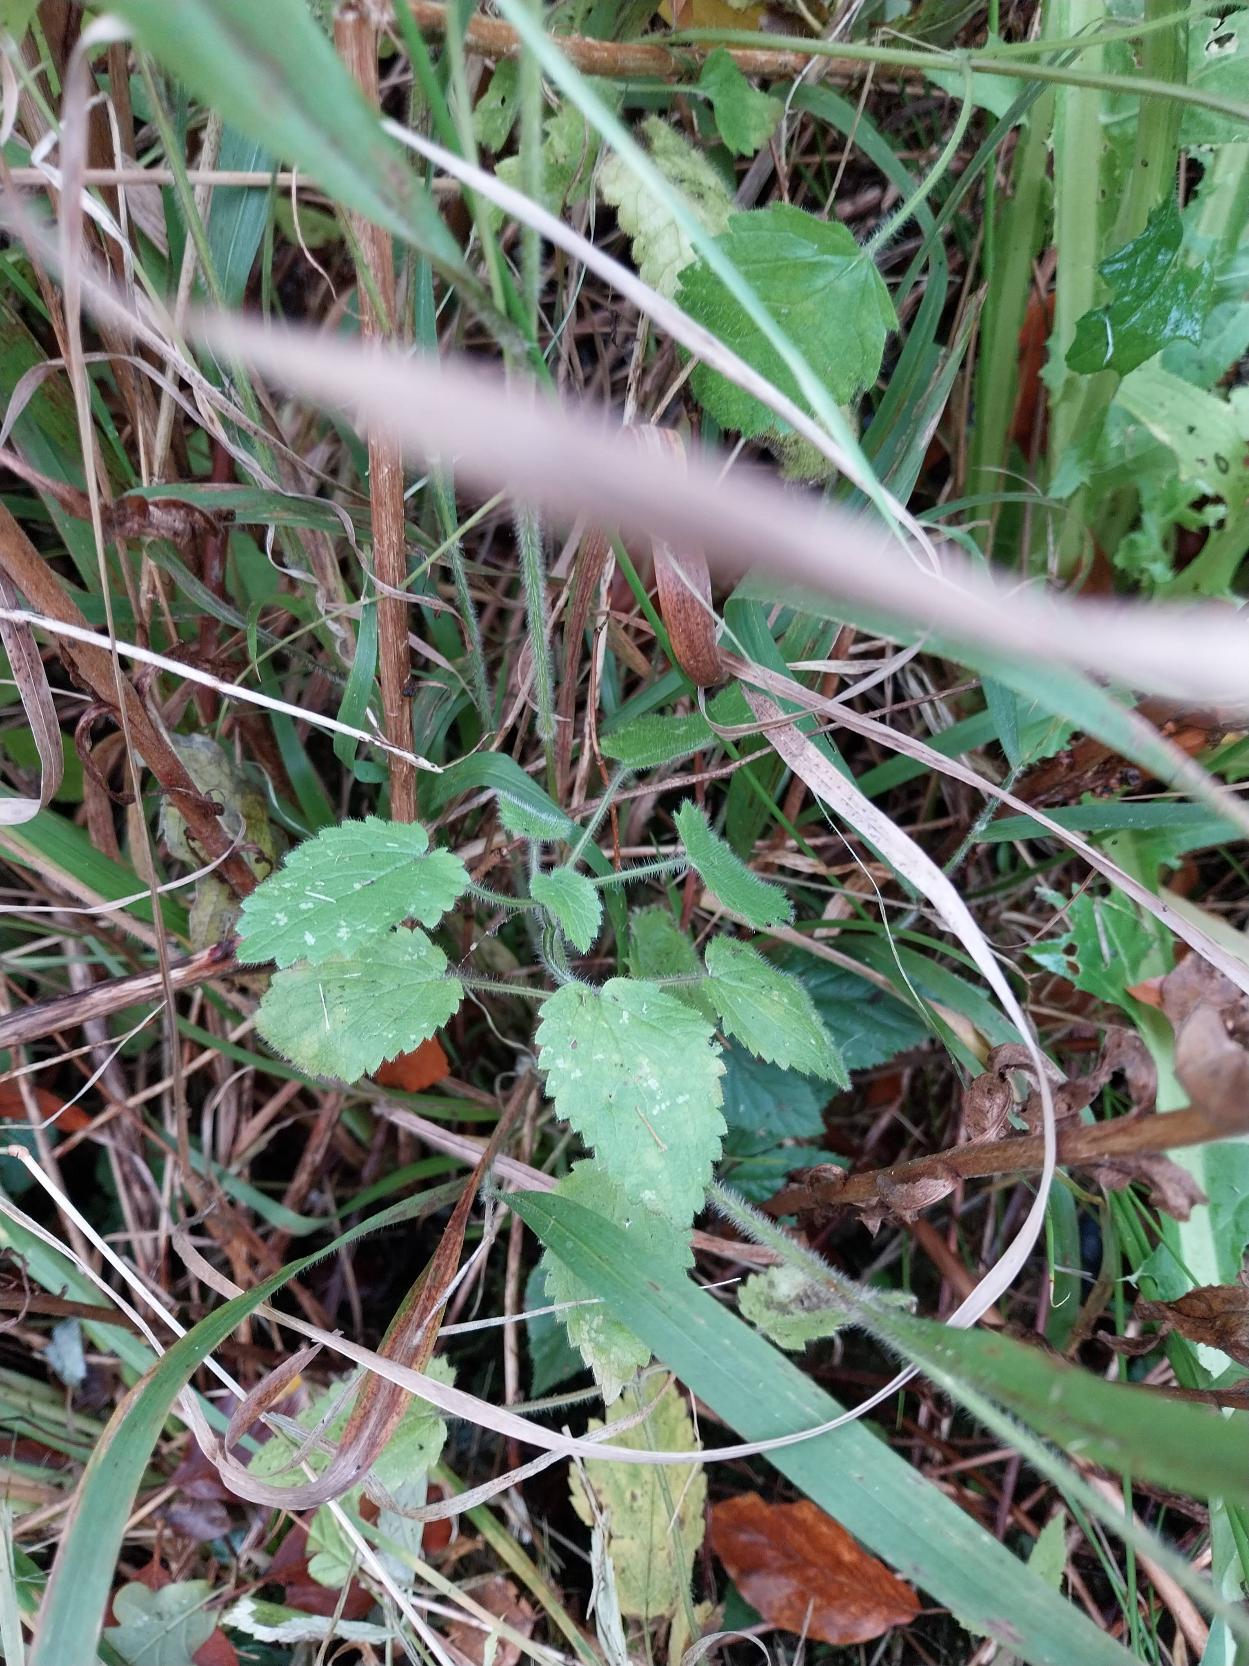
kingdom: Plantae
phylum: Tracheophyta
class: Magnoliopsida
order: Lamiales
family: Lamiaceae
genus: Stachys
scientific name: Stachys sylvatica
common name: Skov-galtetand
